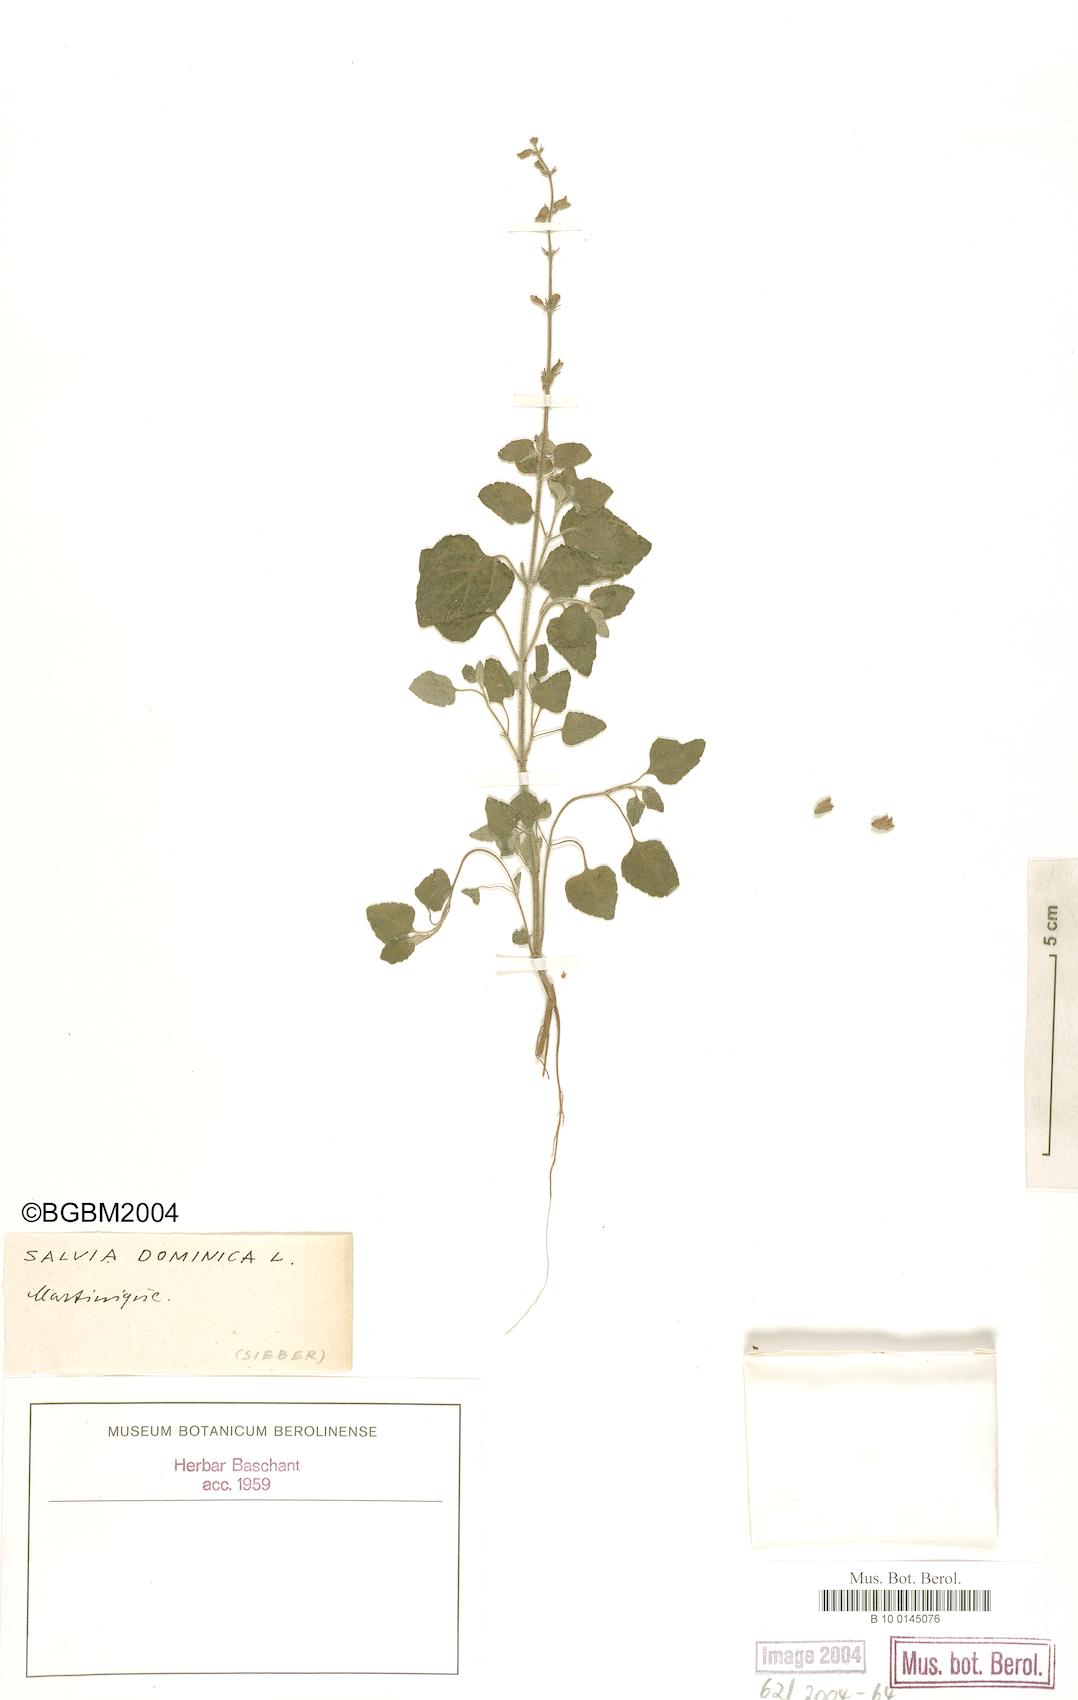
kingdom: Plantae
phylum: Tracheophyta
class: Magnoliopsida
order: Lamiales
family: Lamiaceae
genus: Salvia
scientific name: Salvia dominica
